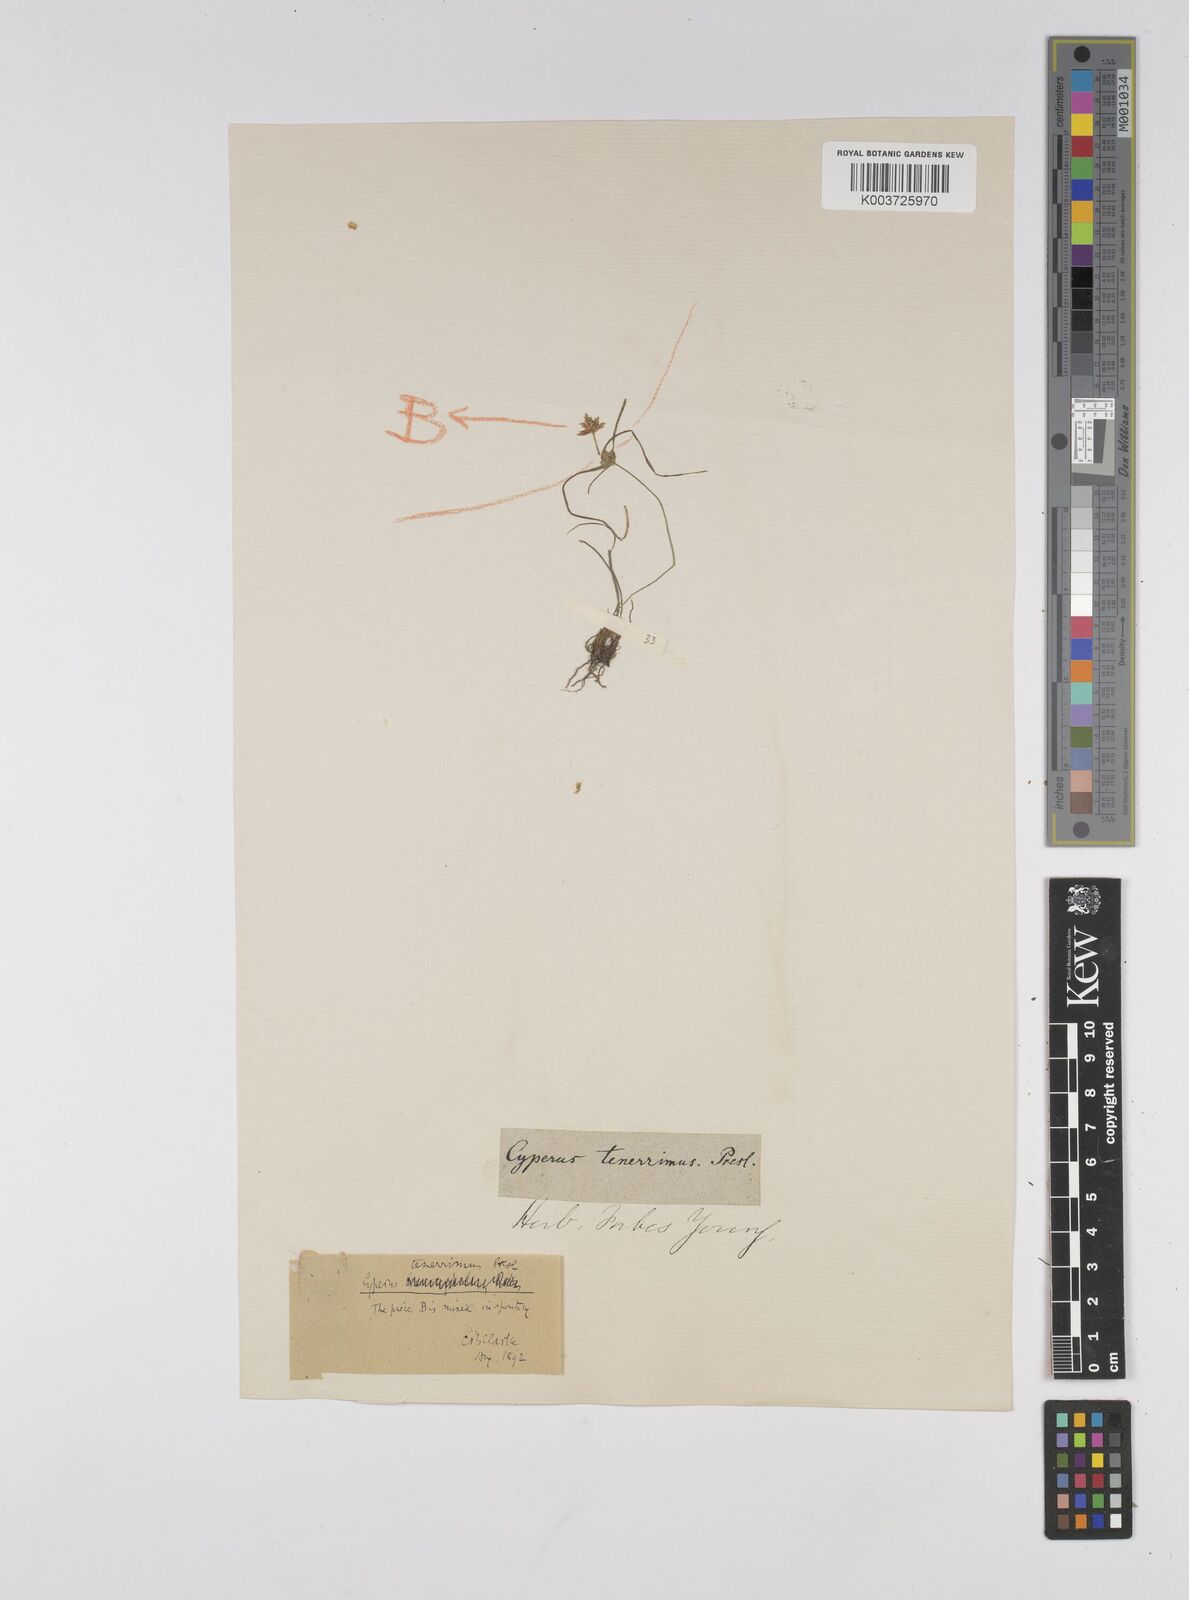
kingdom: Plantae
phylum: Tracheophyta
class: Liliopsida
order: Poales
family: Cyperaceae
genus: Cyperus
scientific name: Cyperus tenerrimus
